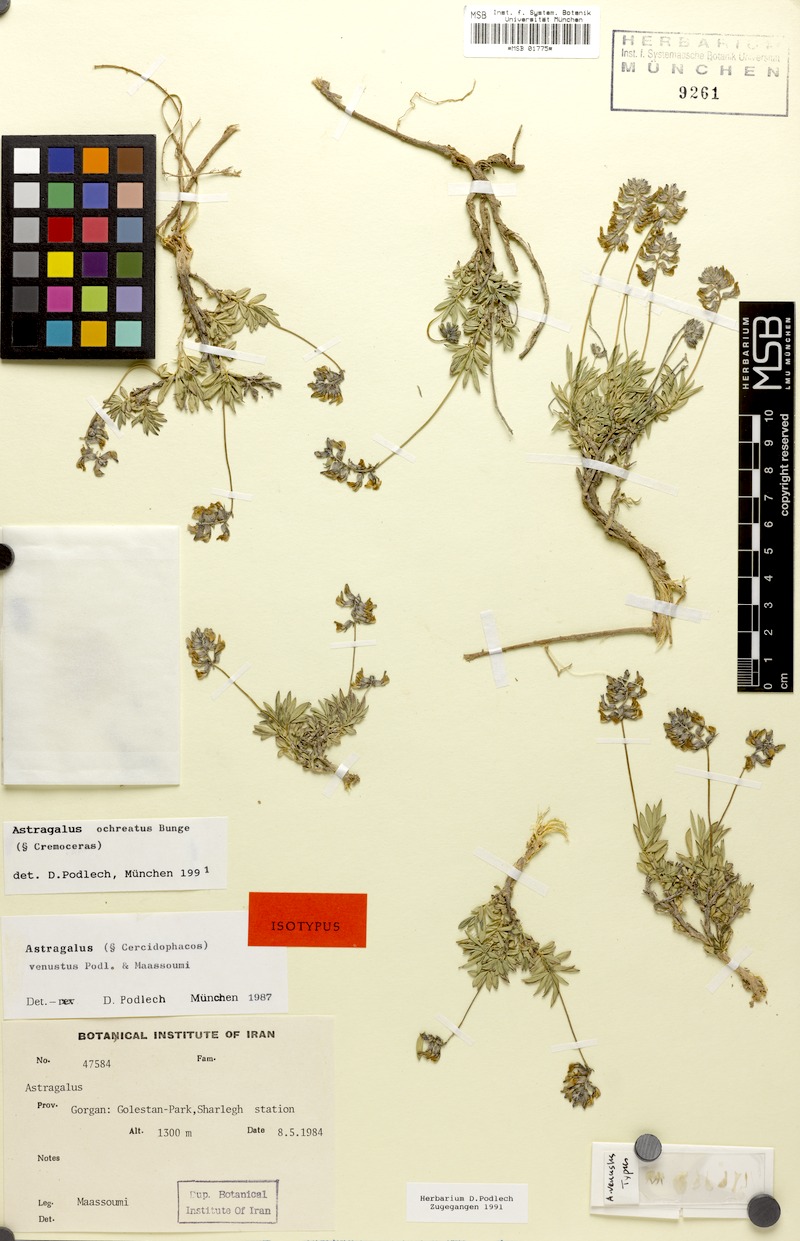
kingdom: Plantae
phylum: Tracheophyta
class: Magnoliopsida
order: Fabales
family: Fabaceae
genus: Astragalus
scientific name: Astragalus ochreatus
